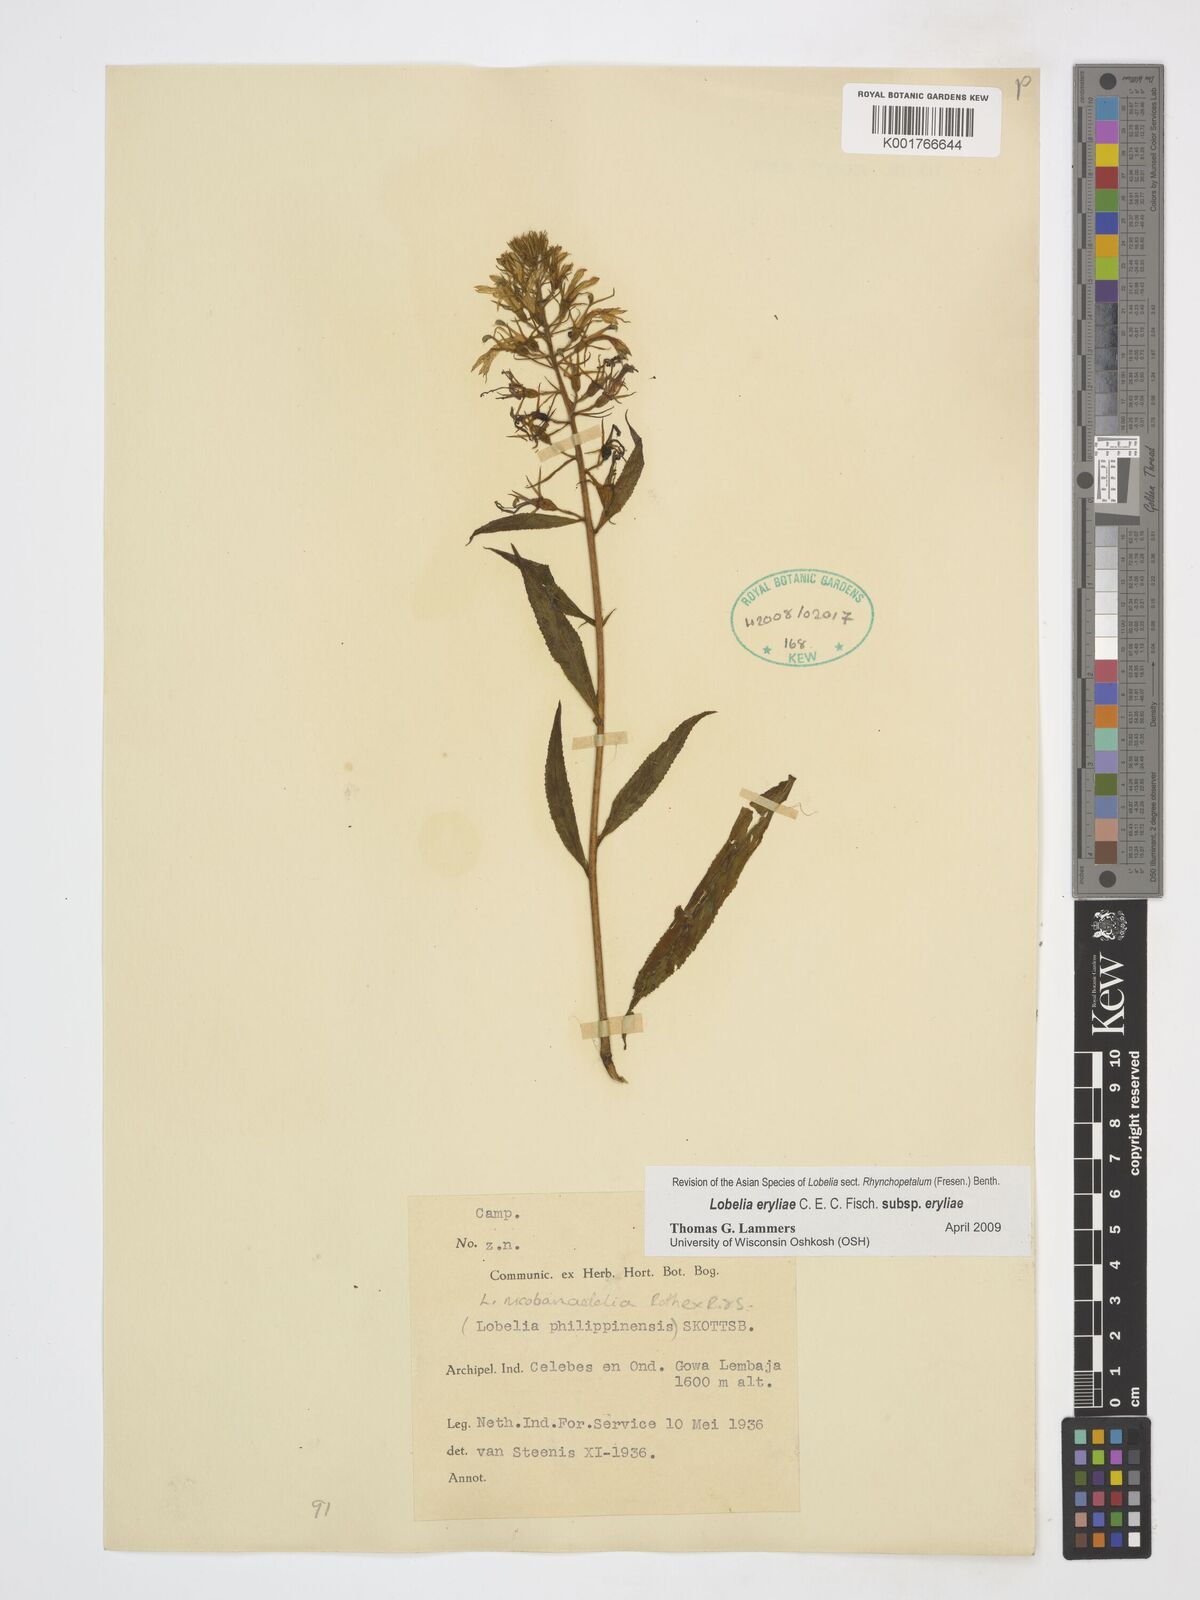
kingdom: Plantae
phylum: Tracheophyta
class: Magnoliopsida
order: Asterales
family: Campanulaceae
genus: Lobelia
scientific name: Lobelia eryliae
